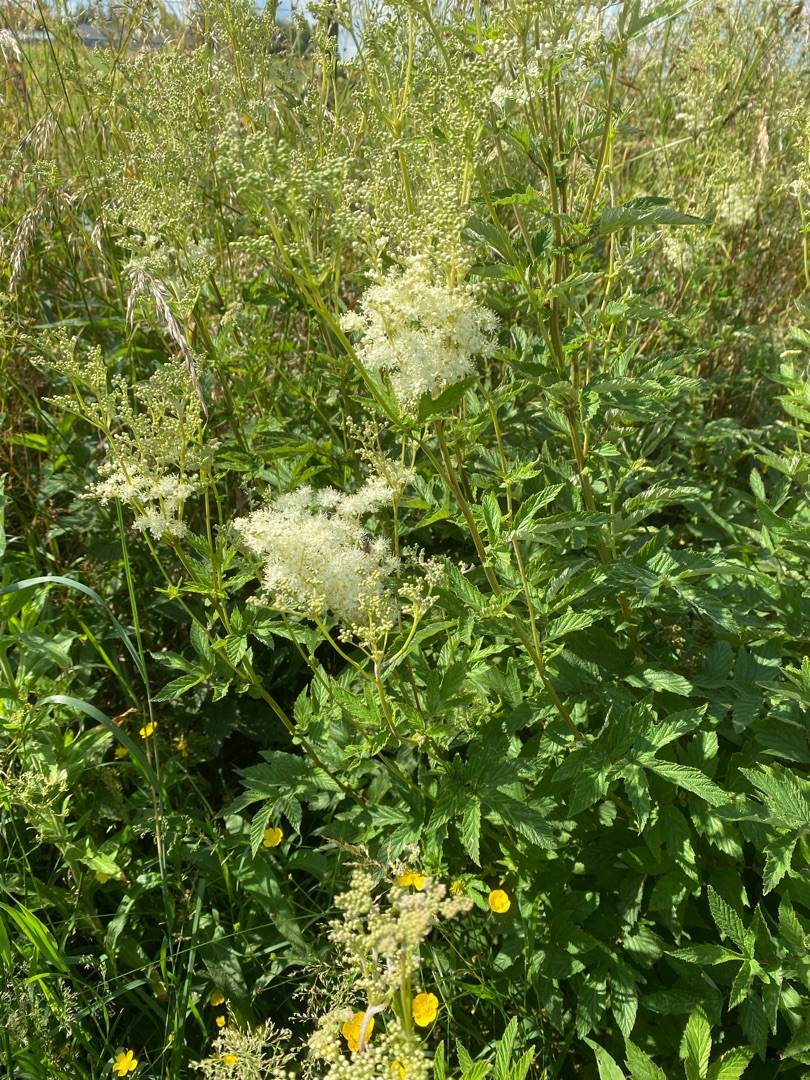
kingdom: Plantae
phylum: Tracheophyta
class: Magnoliopsida
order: Rosales
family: Rosaceae
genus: Filipendula
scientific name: Filipendula ulmaria
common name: Almindelig mjødurt
